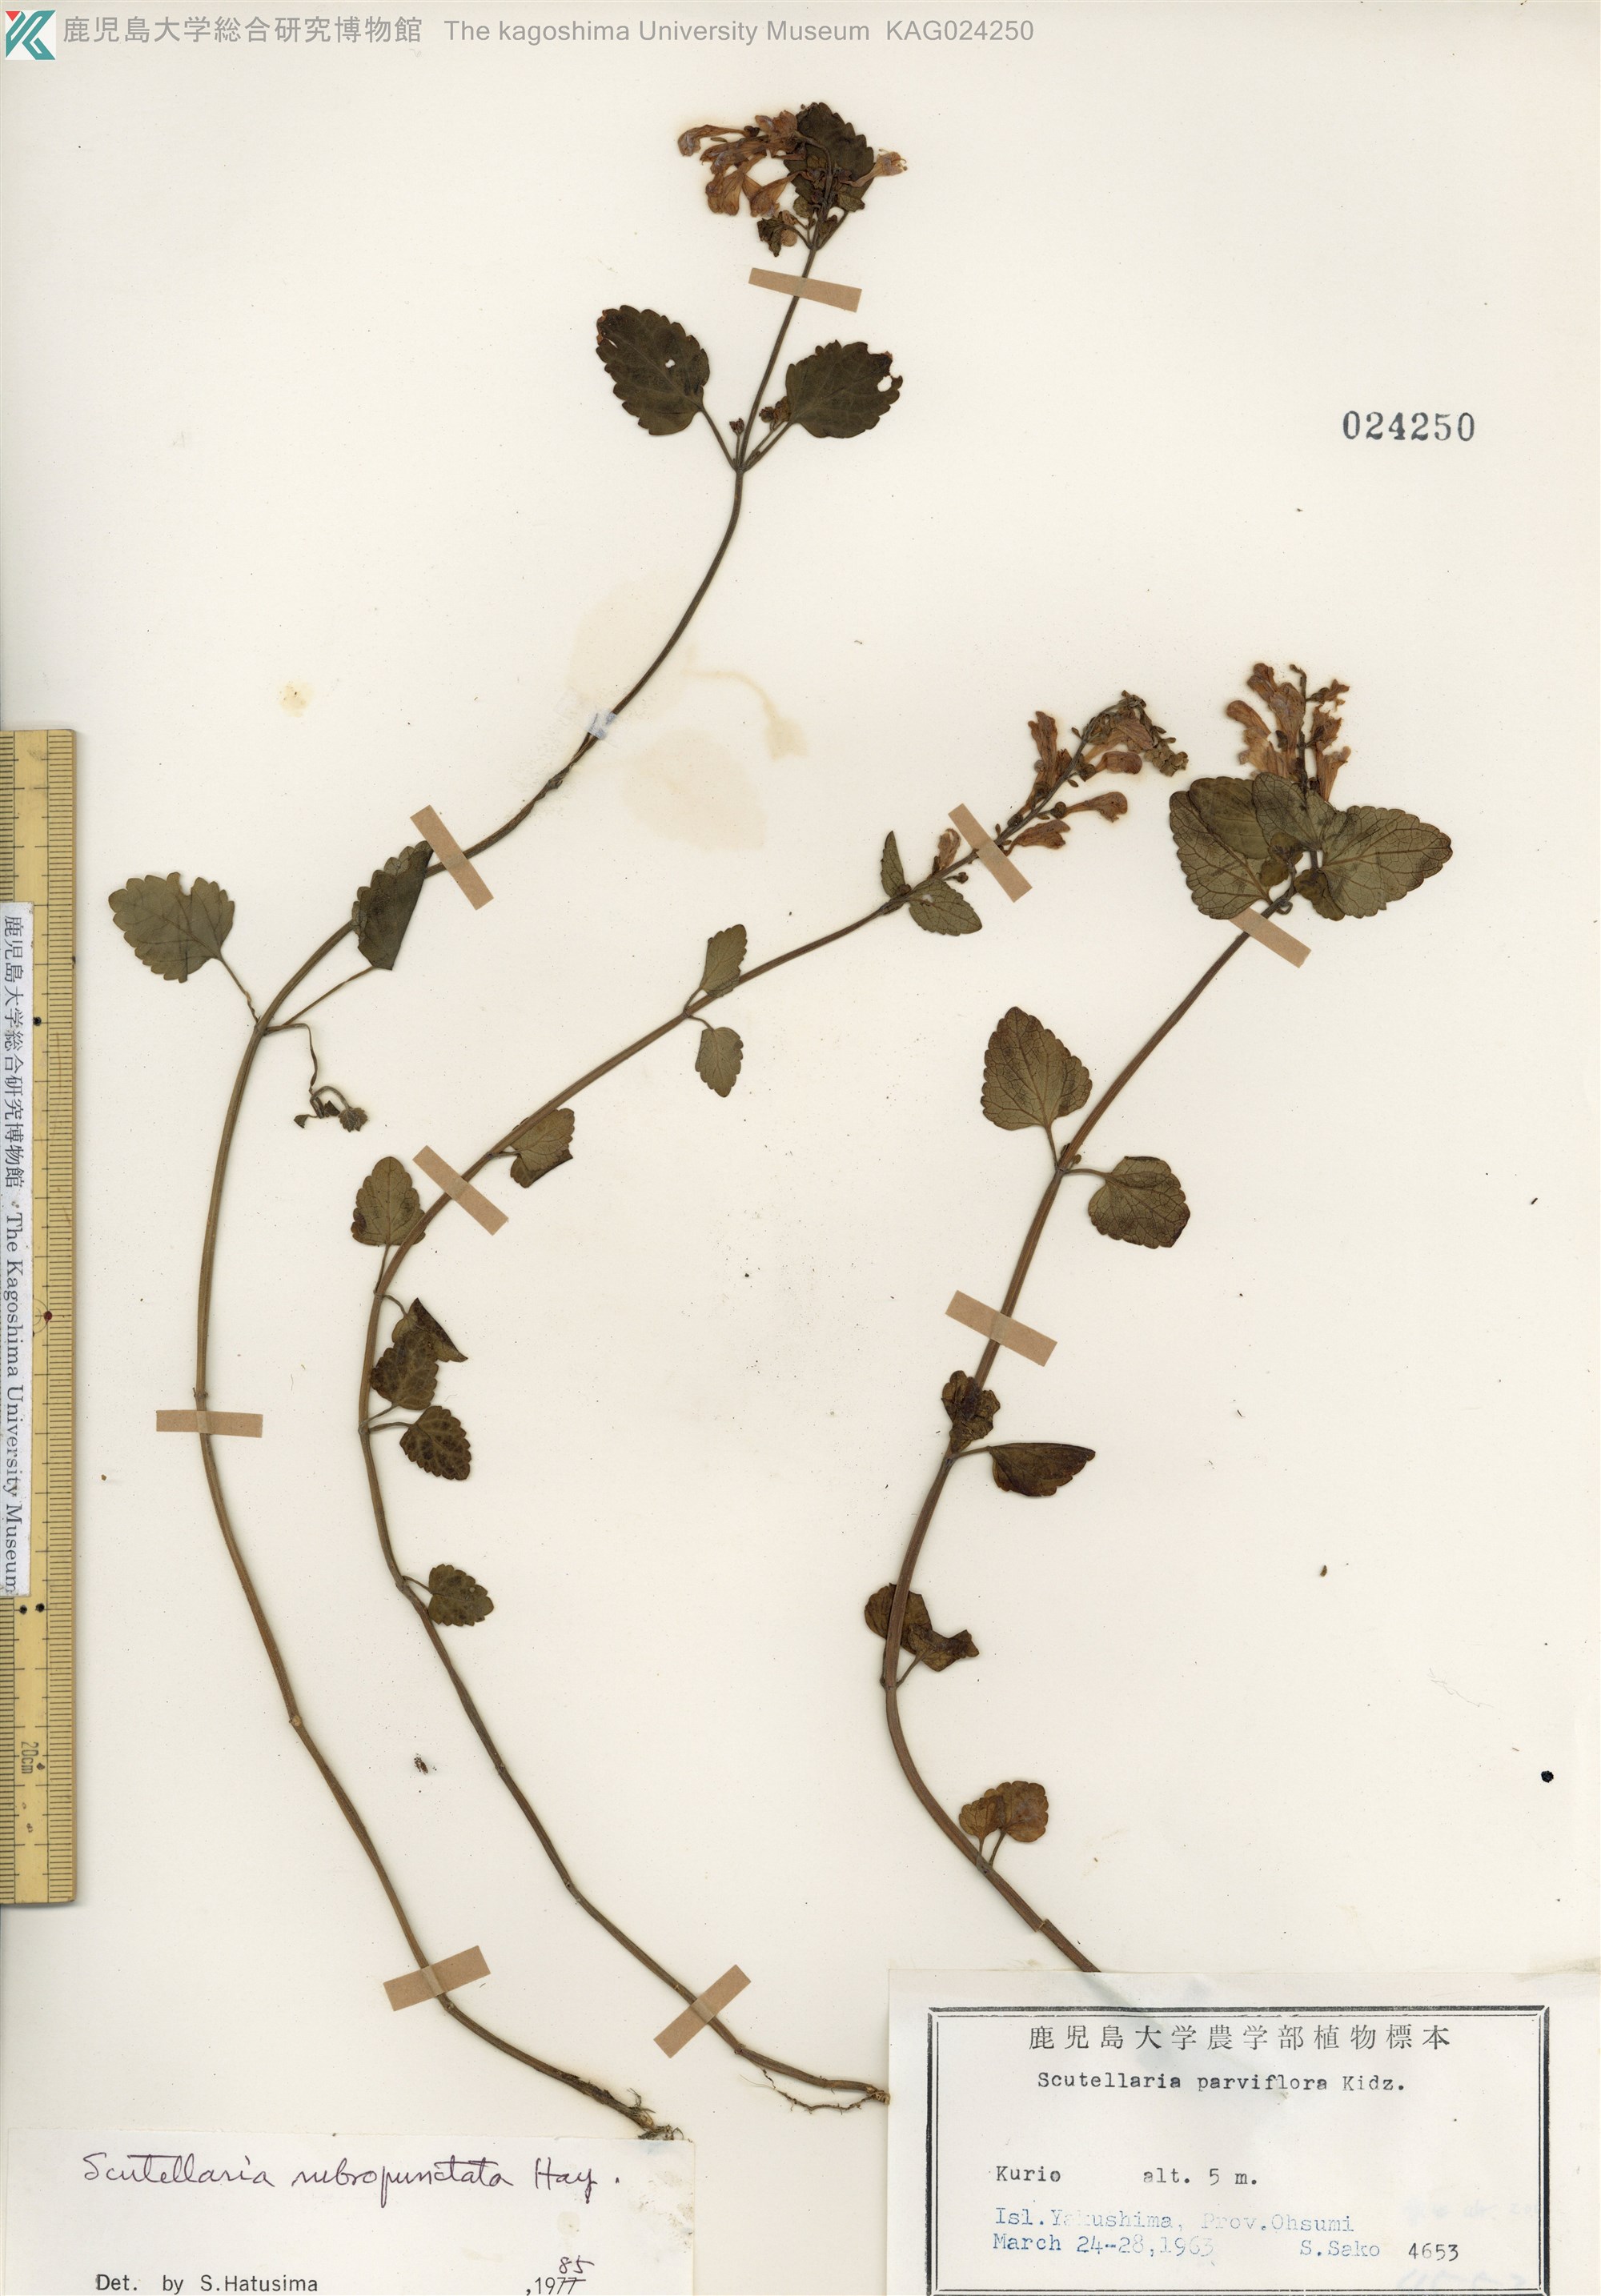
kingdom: Plantae
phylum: Tracheophyta
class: Magnoliopsida
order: Lamiales
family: Lamiaceae
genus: Scutellaria
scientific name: Scutellaria rubropunctata
